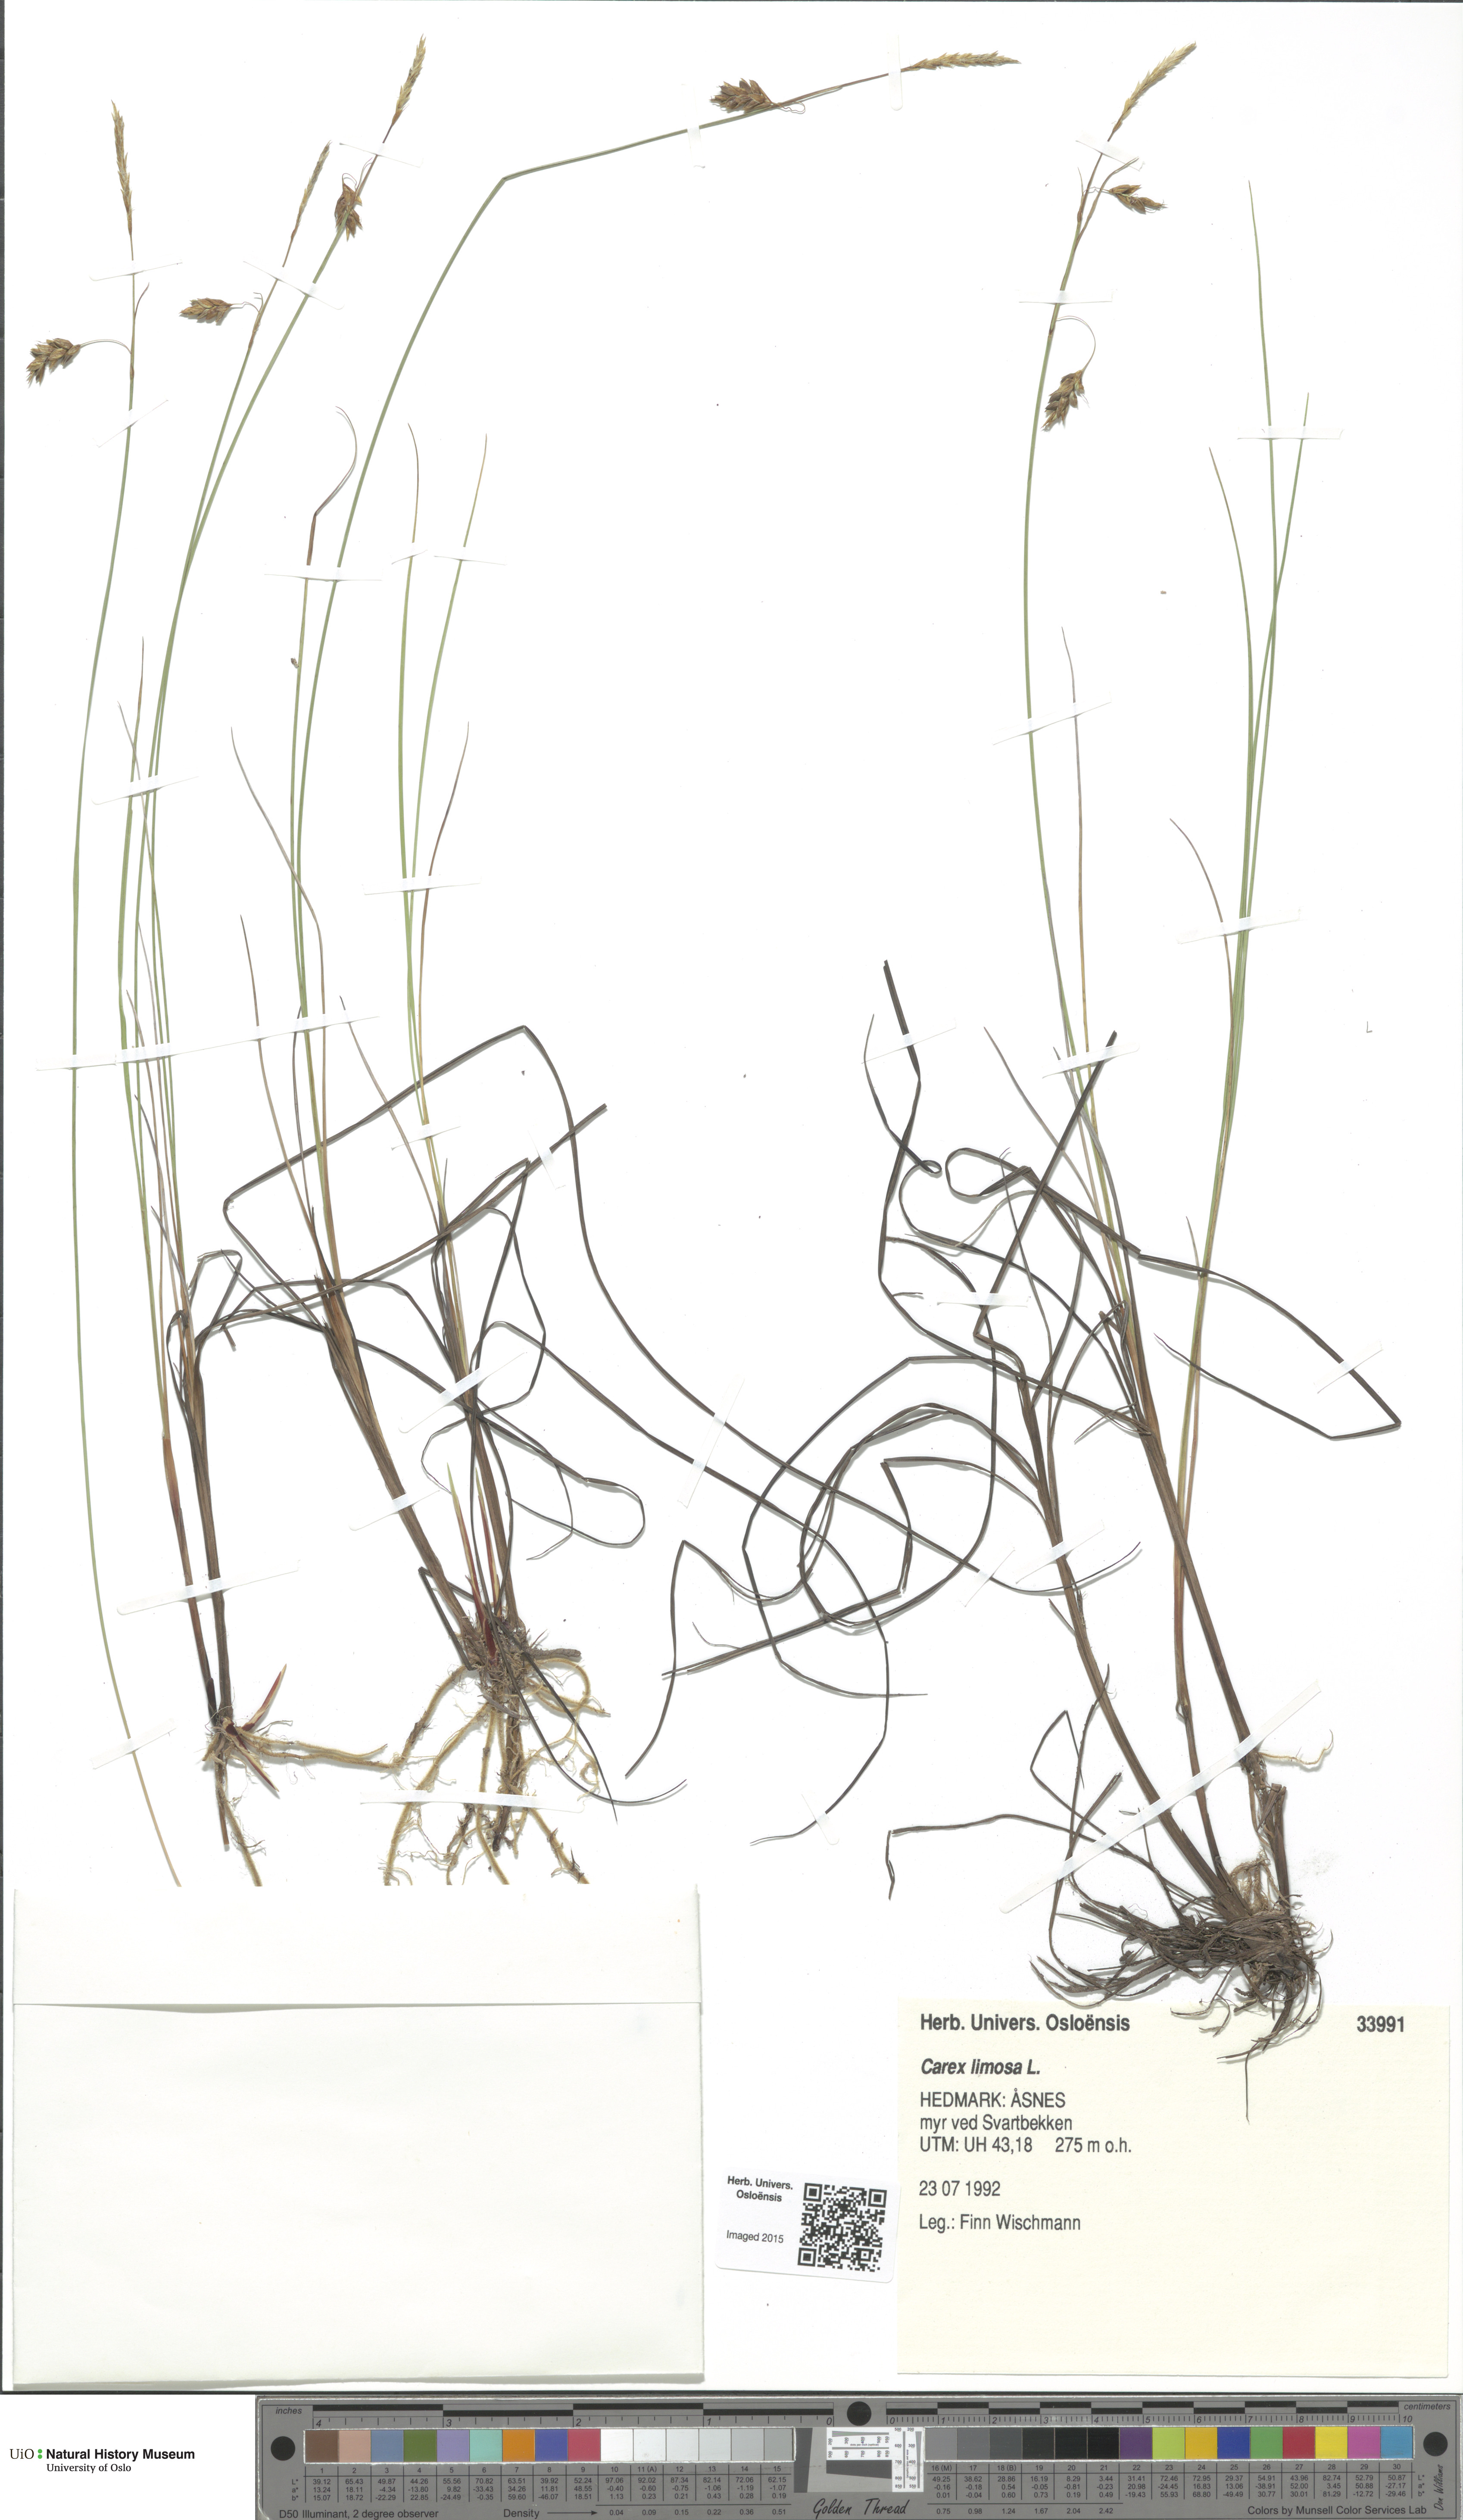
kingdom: Plantae
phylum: Tracheophyta
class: Liliopsida
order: Poales
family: Cyperaceae
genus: Carex
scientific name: Carex limosa
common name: Bog sedge
